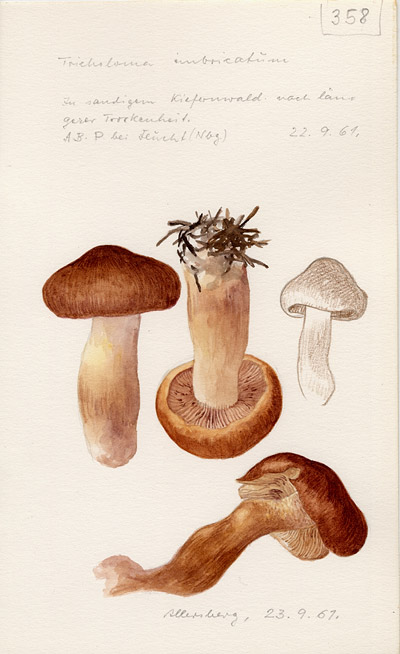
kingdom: Fungi
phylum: Basidiomycota
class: Agaricomycetes
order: Agaricales
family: Tricholomataceae
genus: Tricholoma
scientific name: Tricholoma imbricatum
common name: Matt knight
